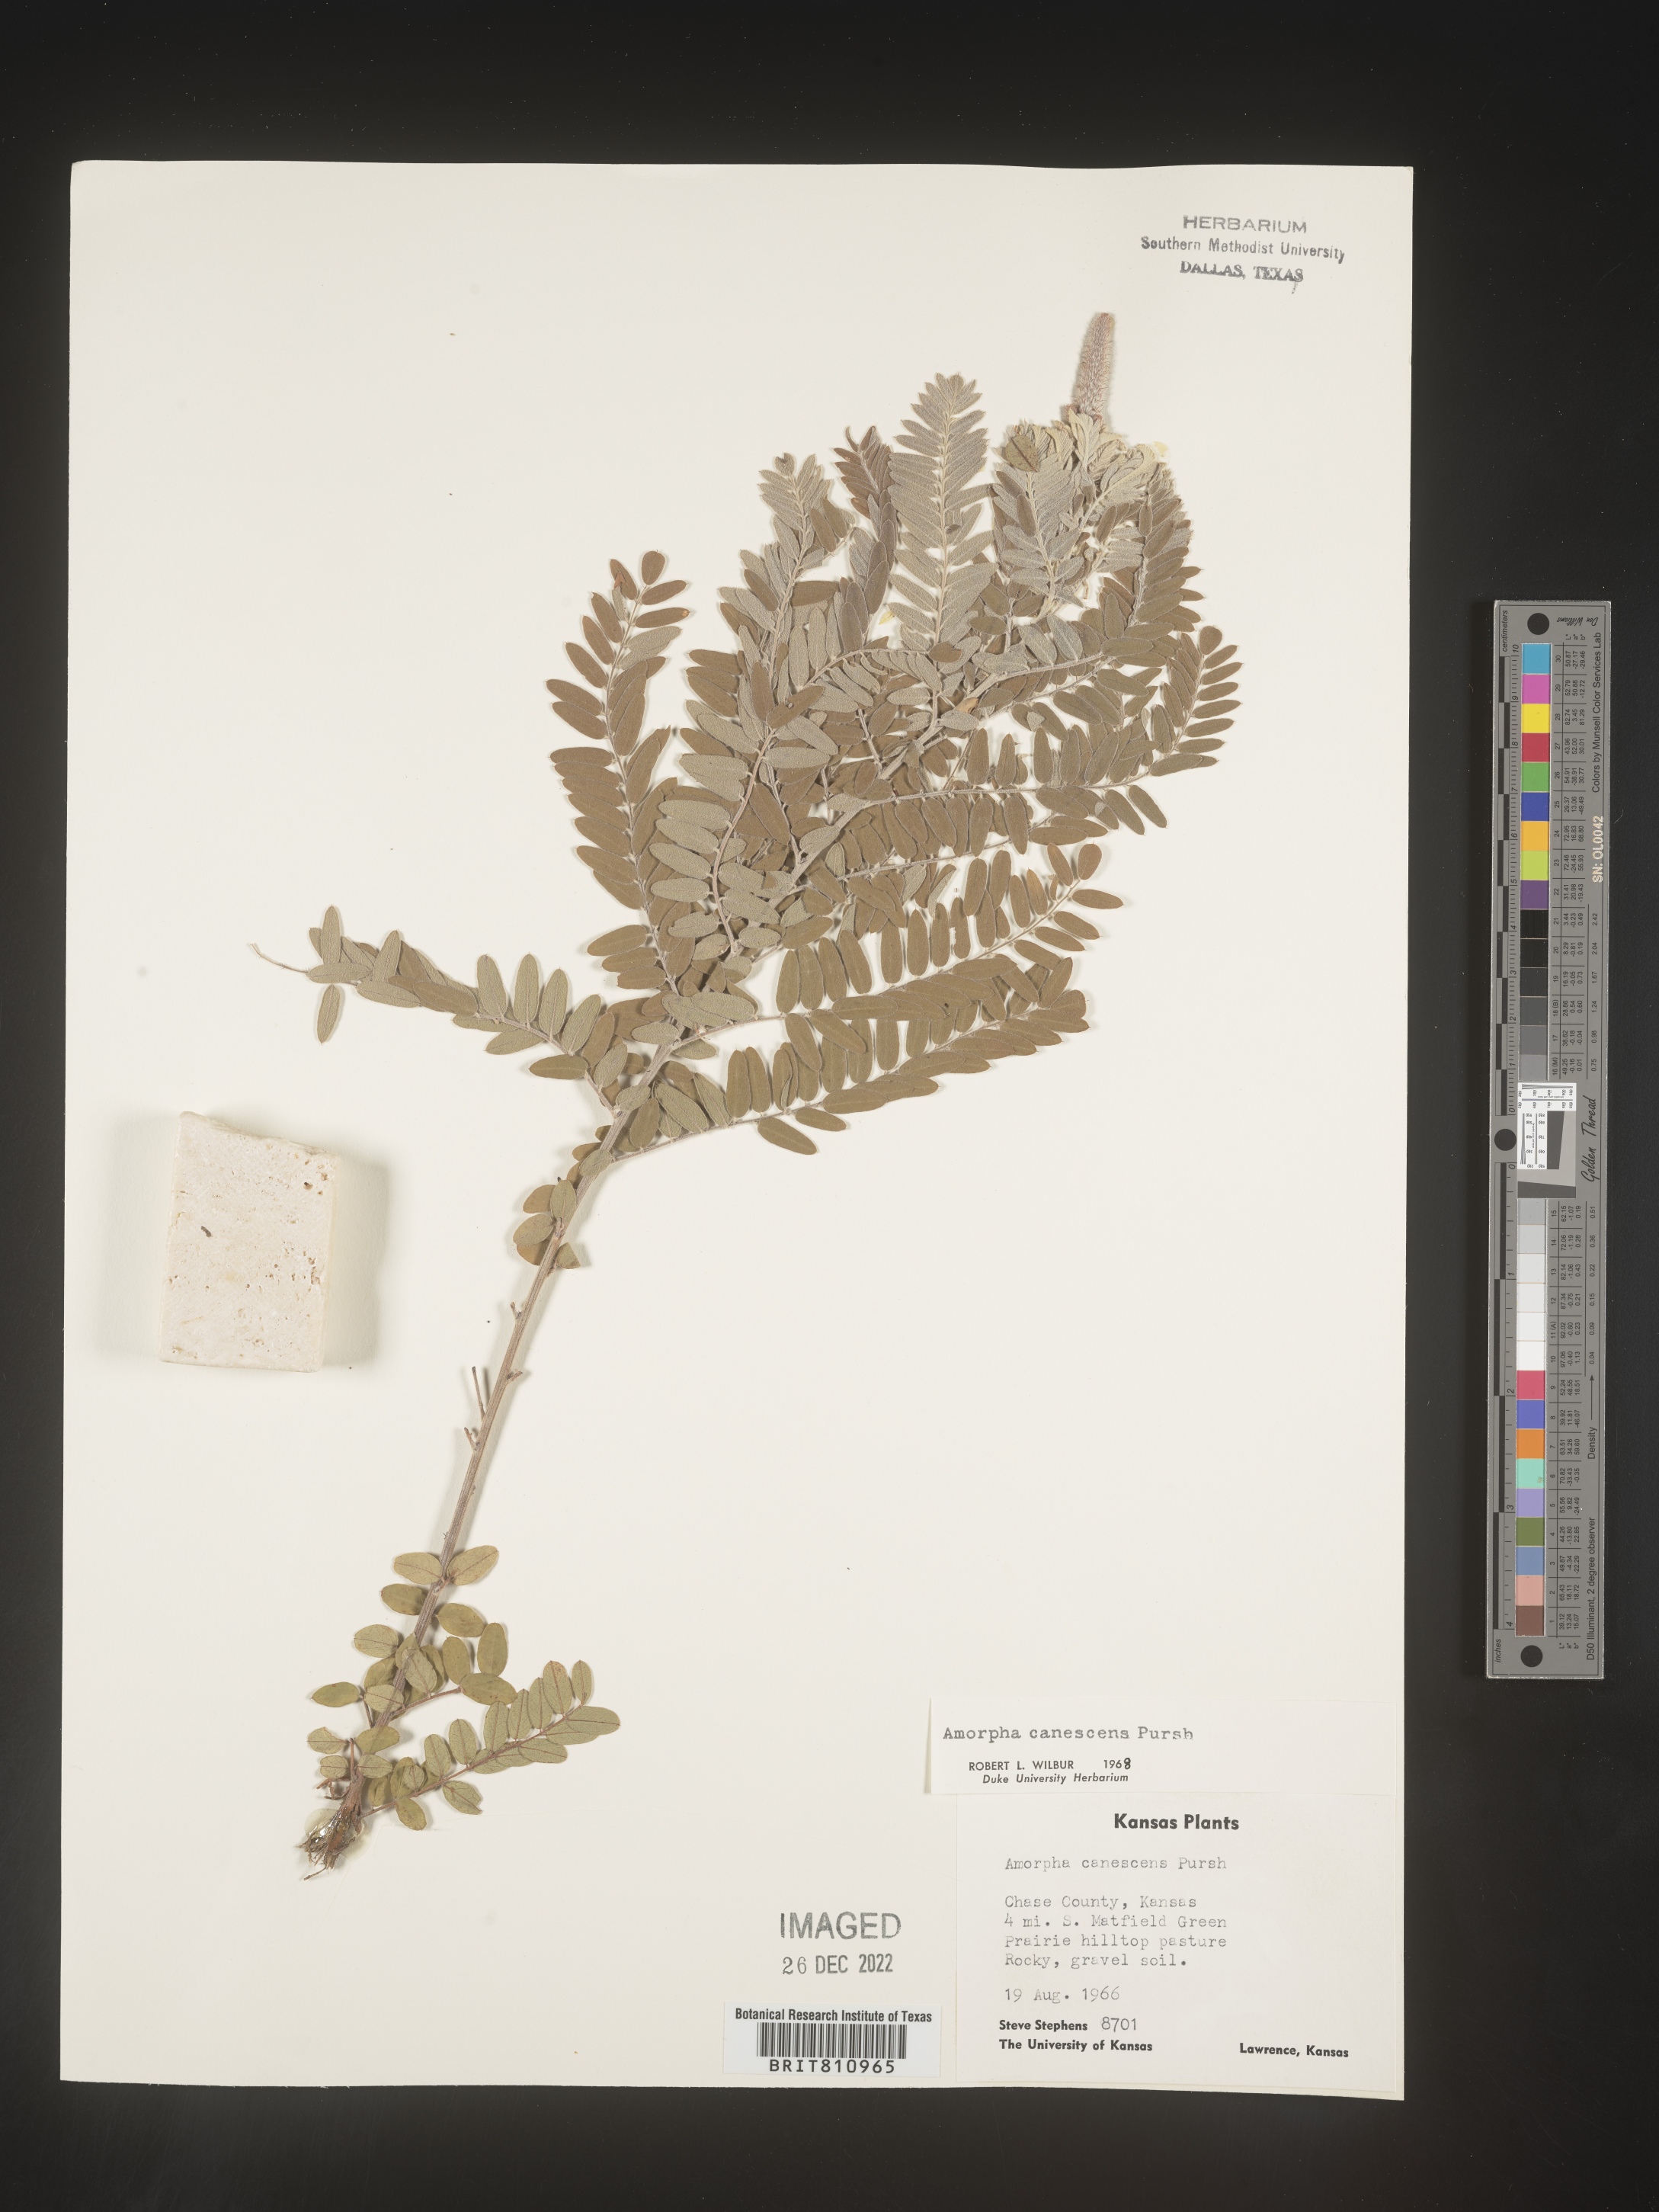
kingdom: Plantae
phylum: Tracheophyta
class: Magnoliopsida
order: Fabales
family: Fabaceae
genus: Amorpha
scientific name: Amorpha canescens
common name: Leadplant
